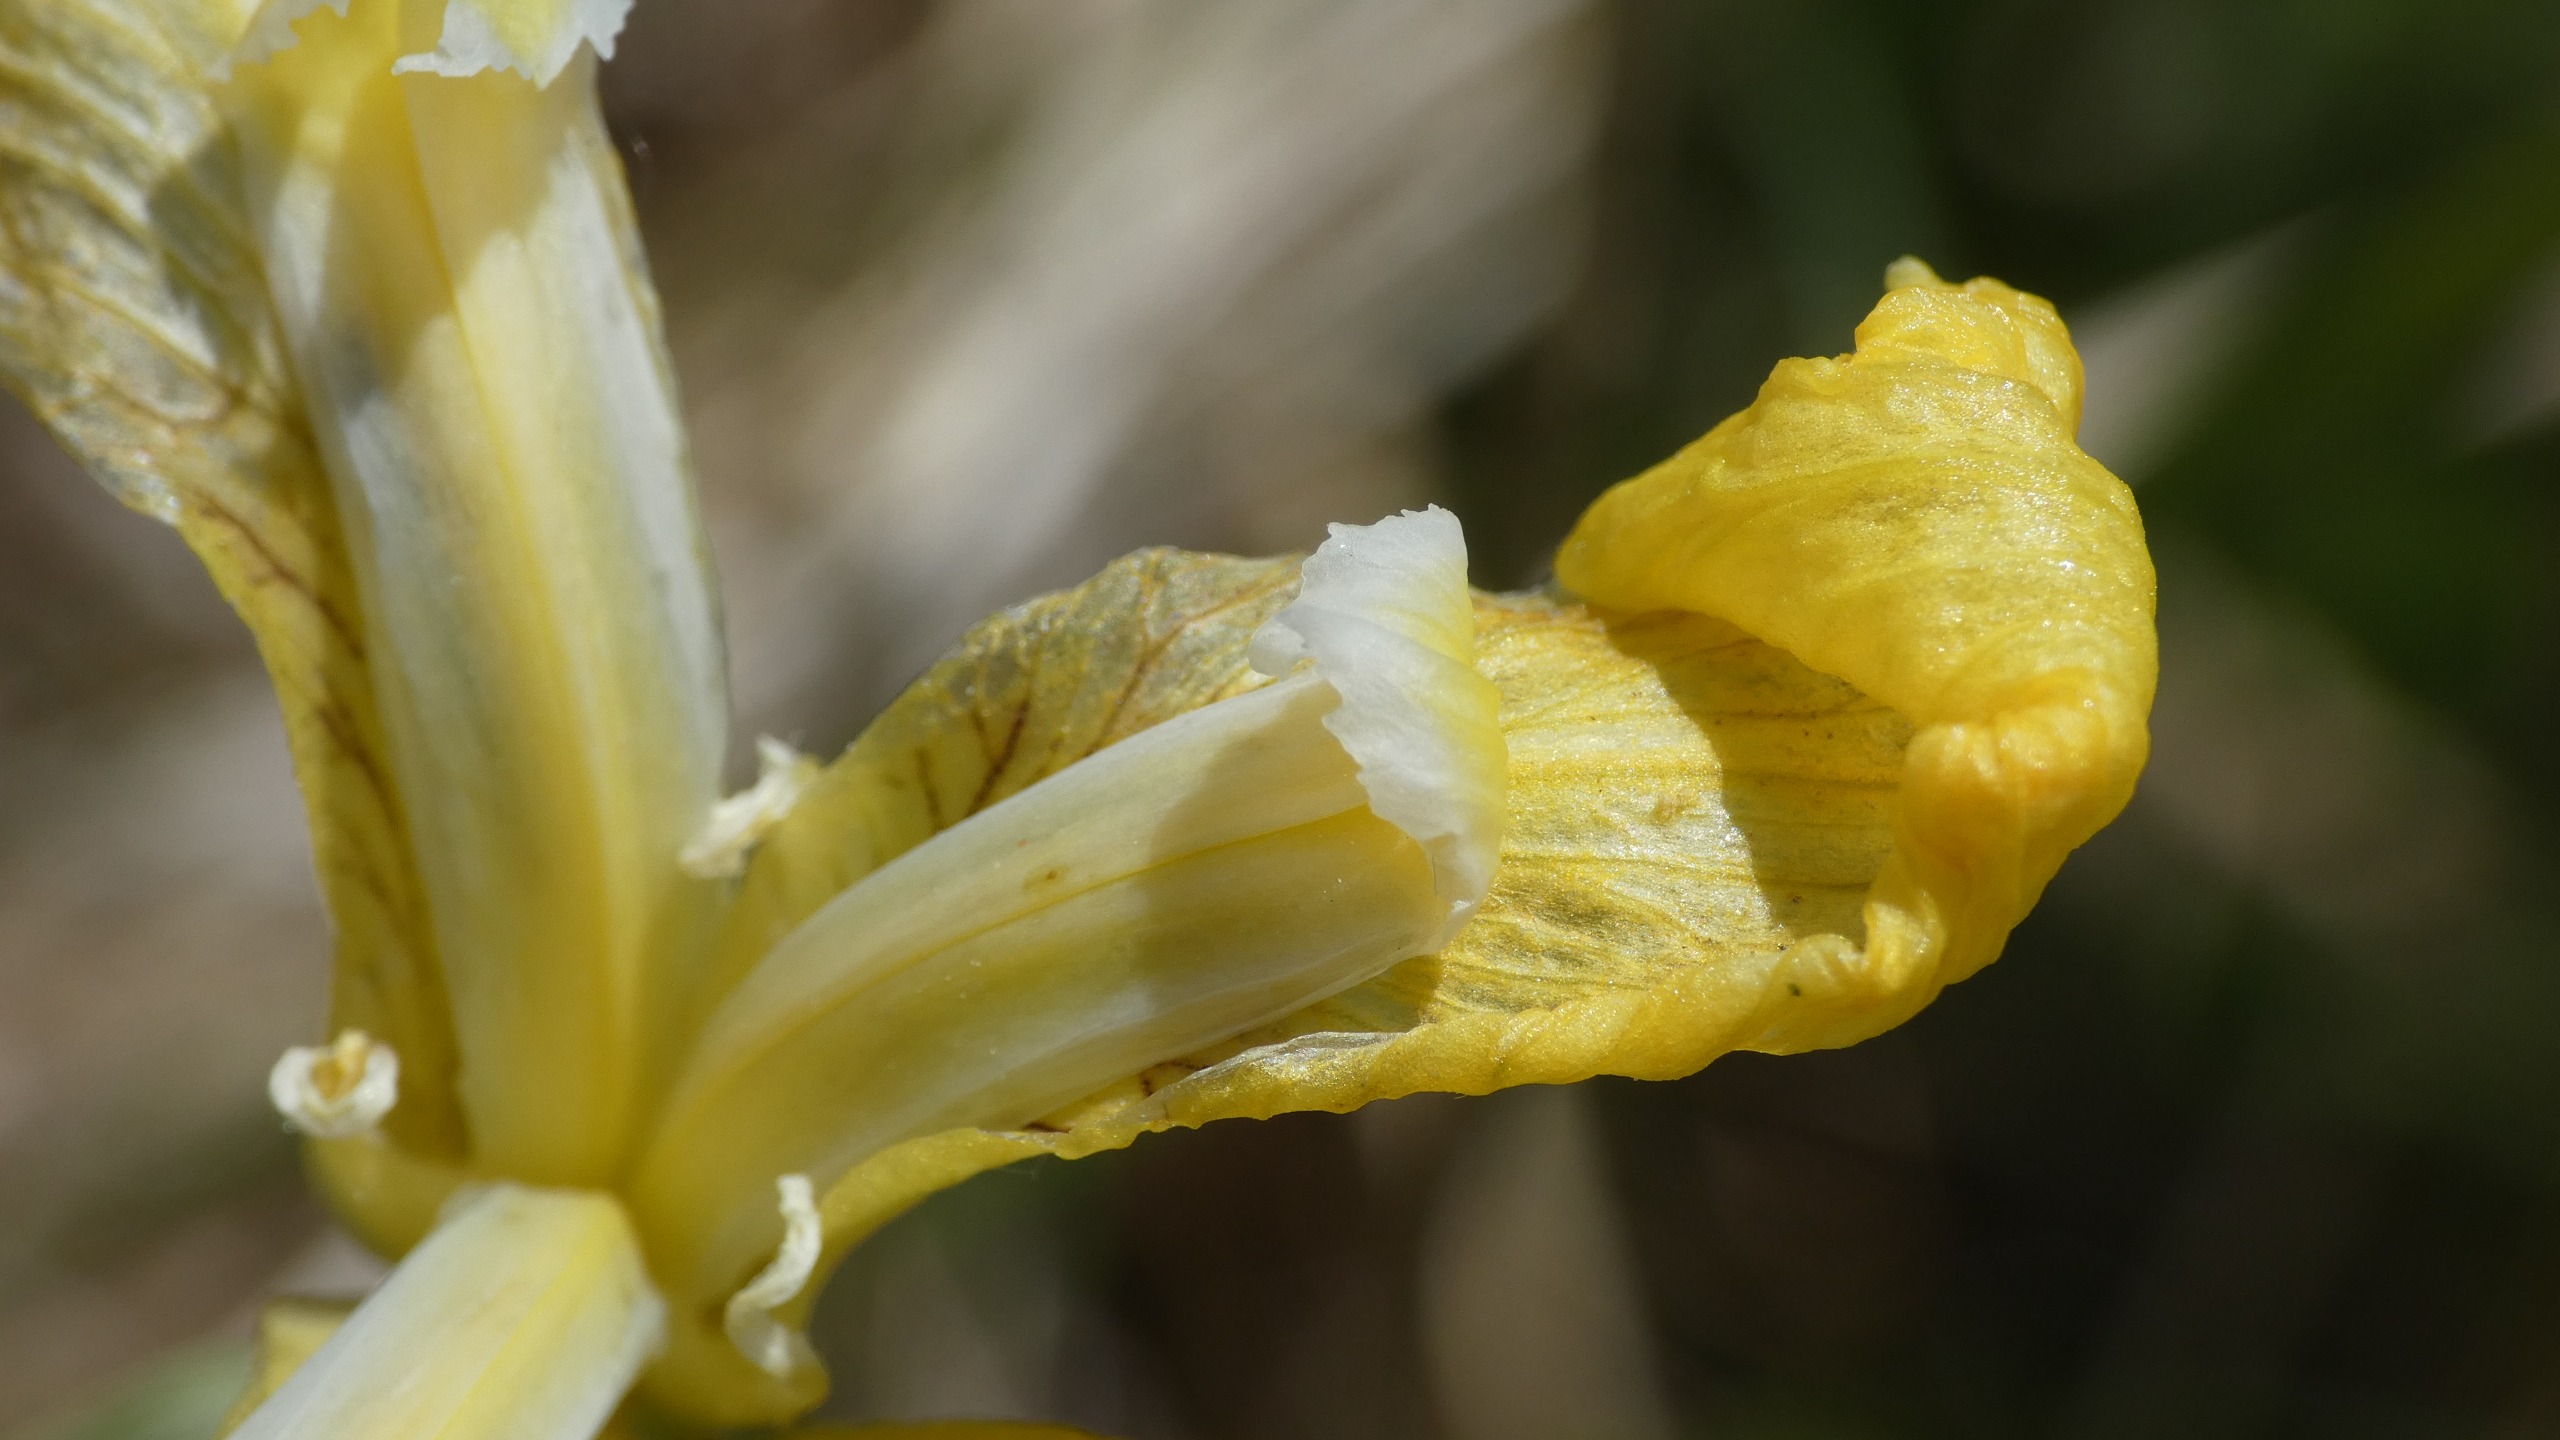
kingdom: Plantae
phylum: Tracheophyta
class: Liliopsida
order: Asparagales
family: Iridaceae
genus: Iris
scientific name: Iris pseudacorus
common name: Gul iris
